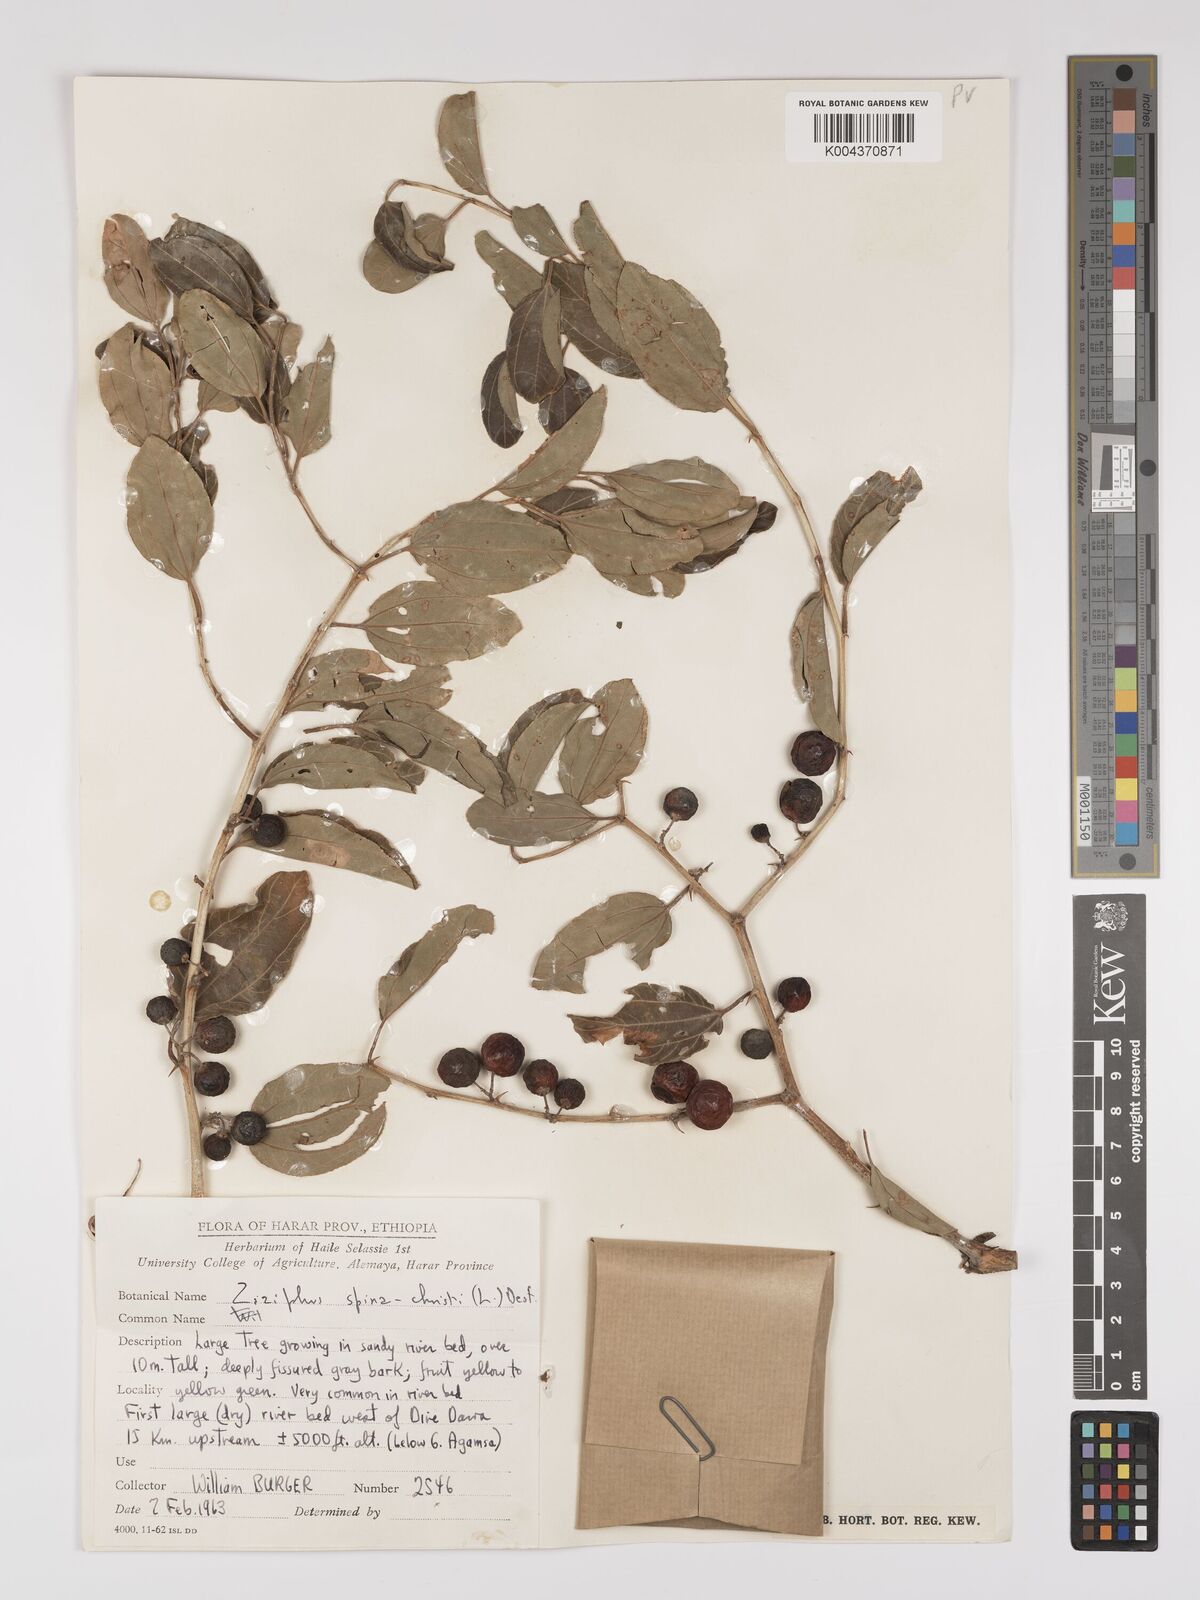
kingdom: Plantae
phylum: Tracheophyta
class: Magnoliopsida
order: Rosales
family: Rhamnaceae
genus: Ziziphus
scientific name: Ziziphus spina-christi
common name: Syrian christ-thorn
